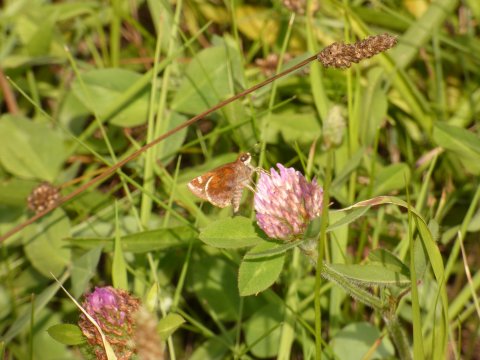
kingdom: Animalia
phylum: Arthropoda
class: Insecta
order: Lepidoptera
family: Hesperiidae
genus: Lon
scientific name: Lon zabulon
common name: Zabulon Skipper
